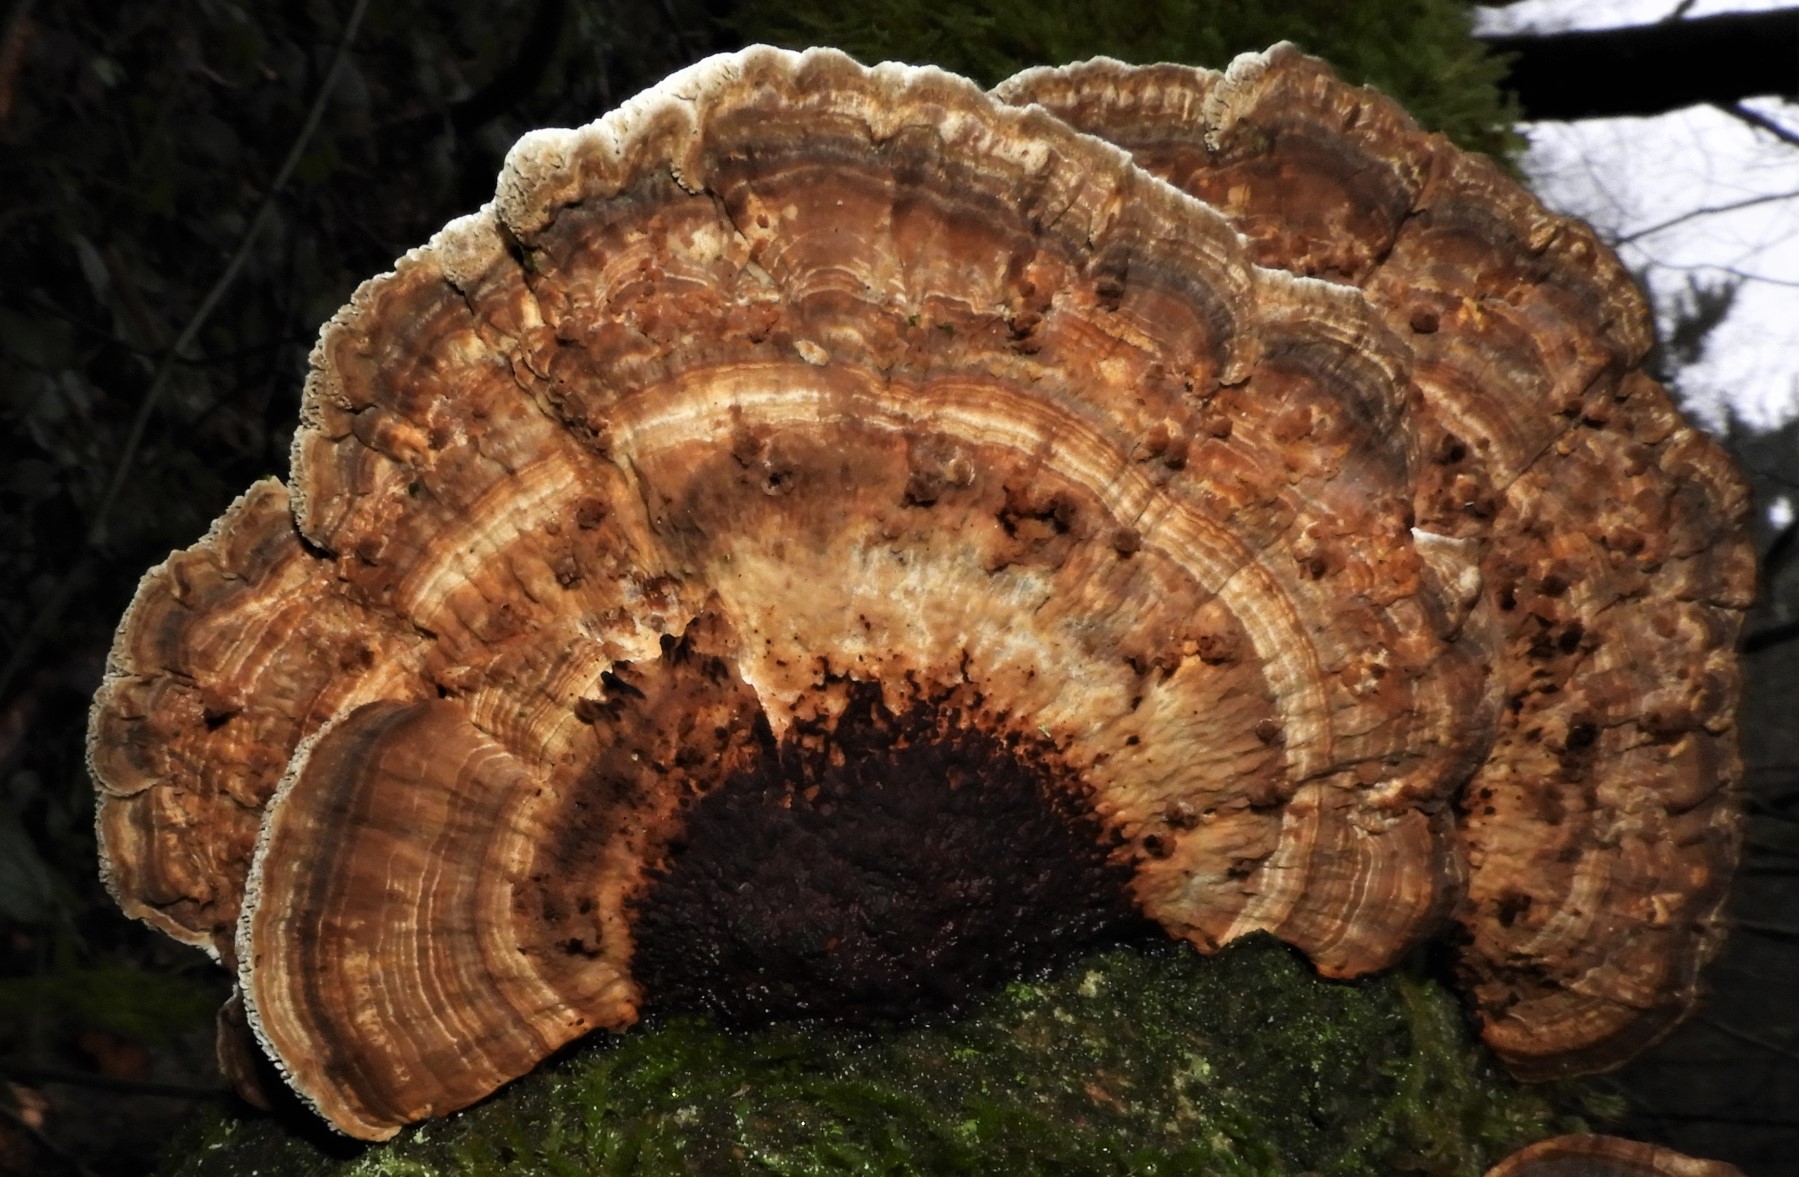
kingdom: Fungi
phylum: Basidiomycota
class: Agaricomycetes
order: Polyporales
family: Polyporaceae
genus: Daedaleopsis
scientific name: Daedaleopsis confragosa
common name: rødmende læderporesvamp
